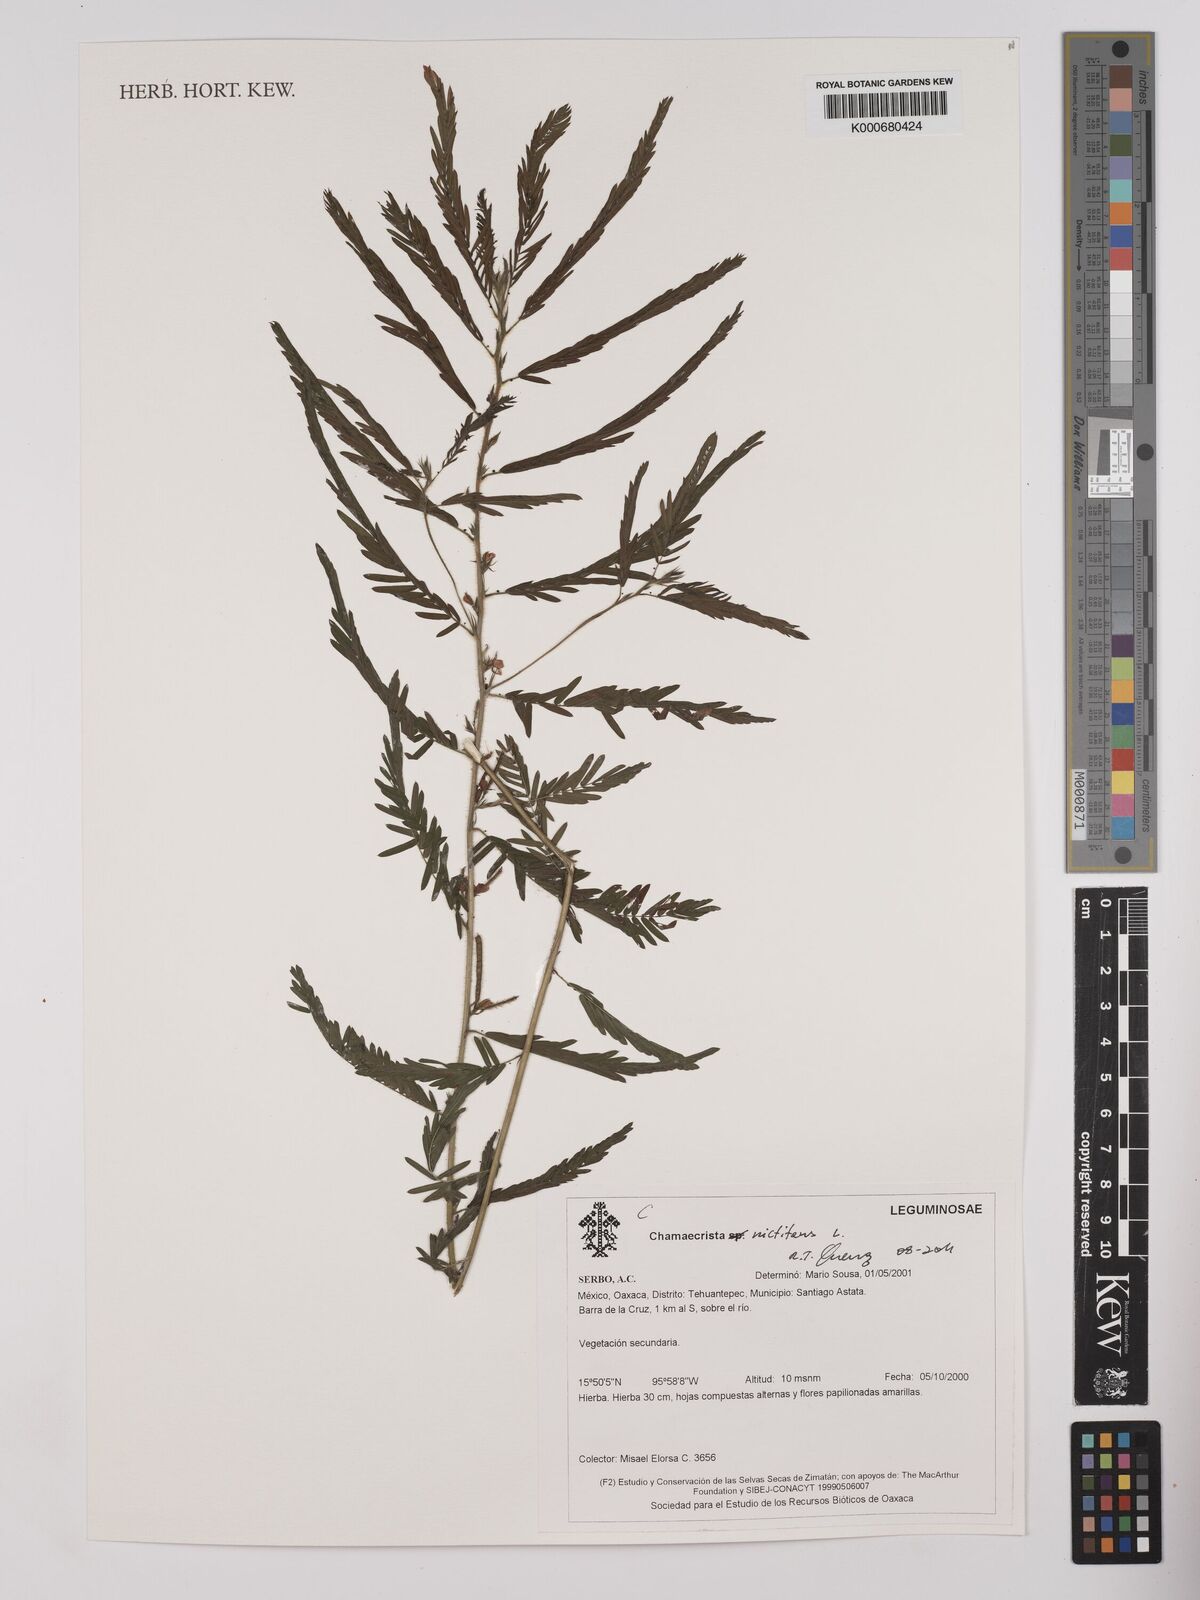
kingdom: Plantae
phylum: Tracheophyta
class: Magnoliopsida
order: Fabales
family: Fabaceae
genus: Chamaecrista
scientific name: Chamaecrista
